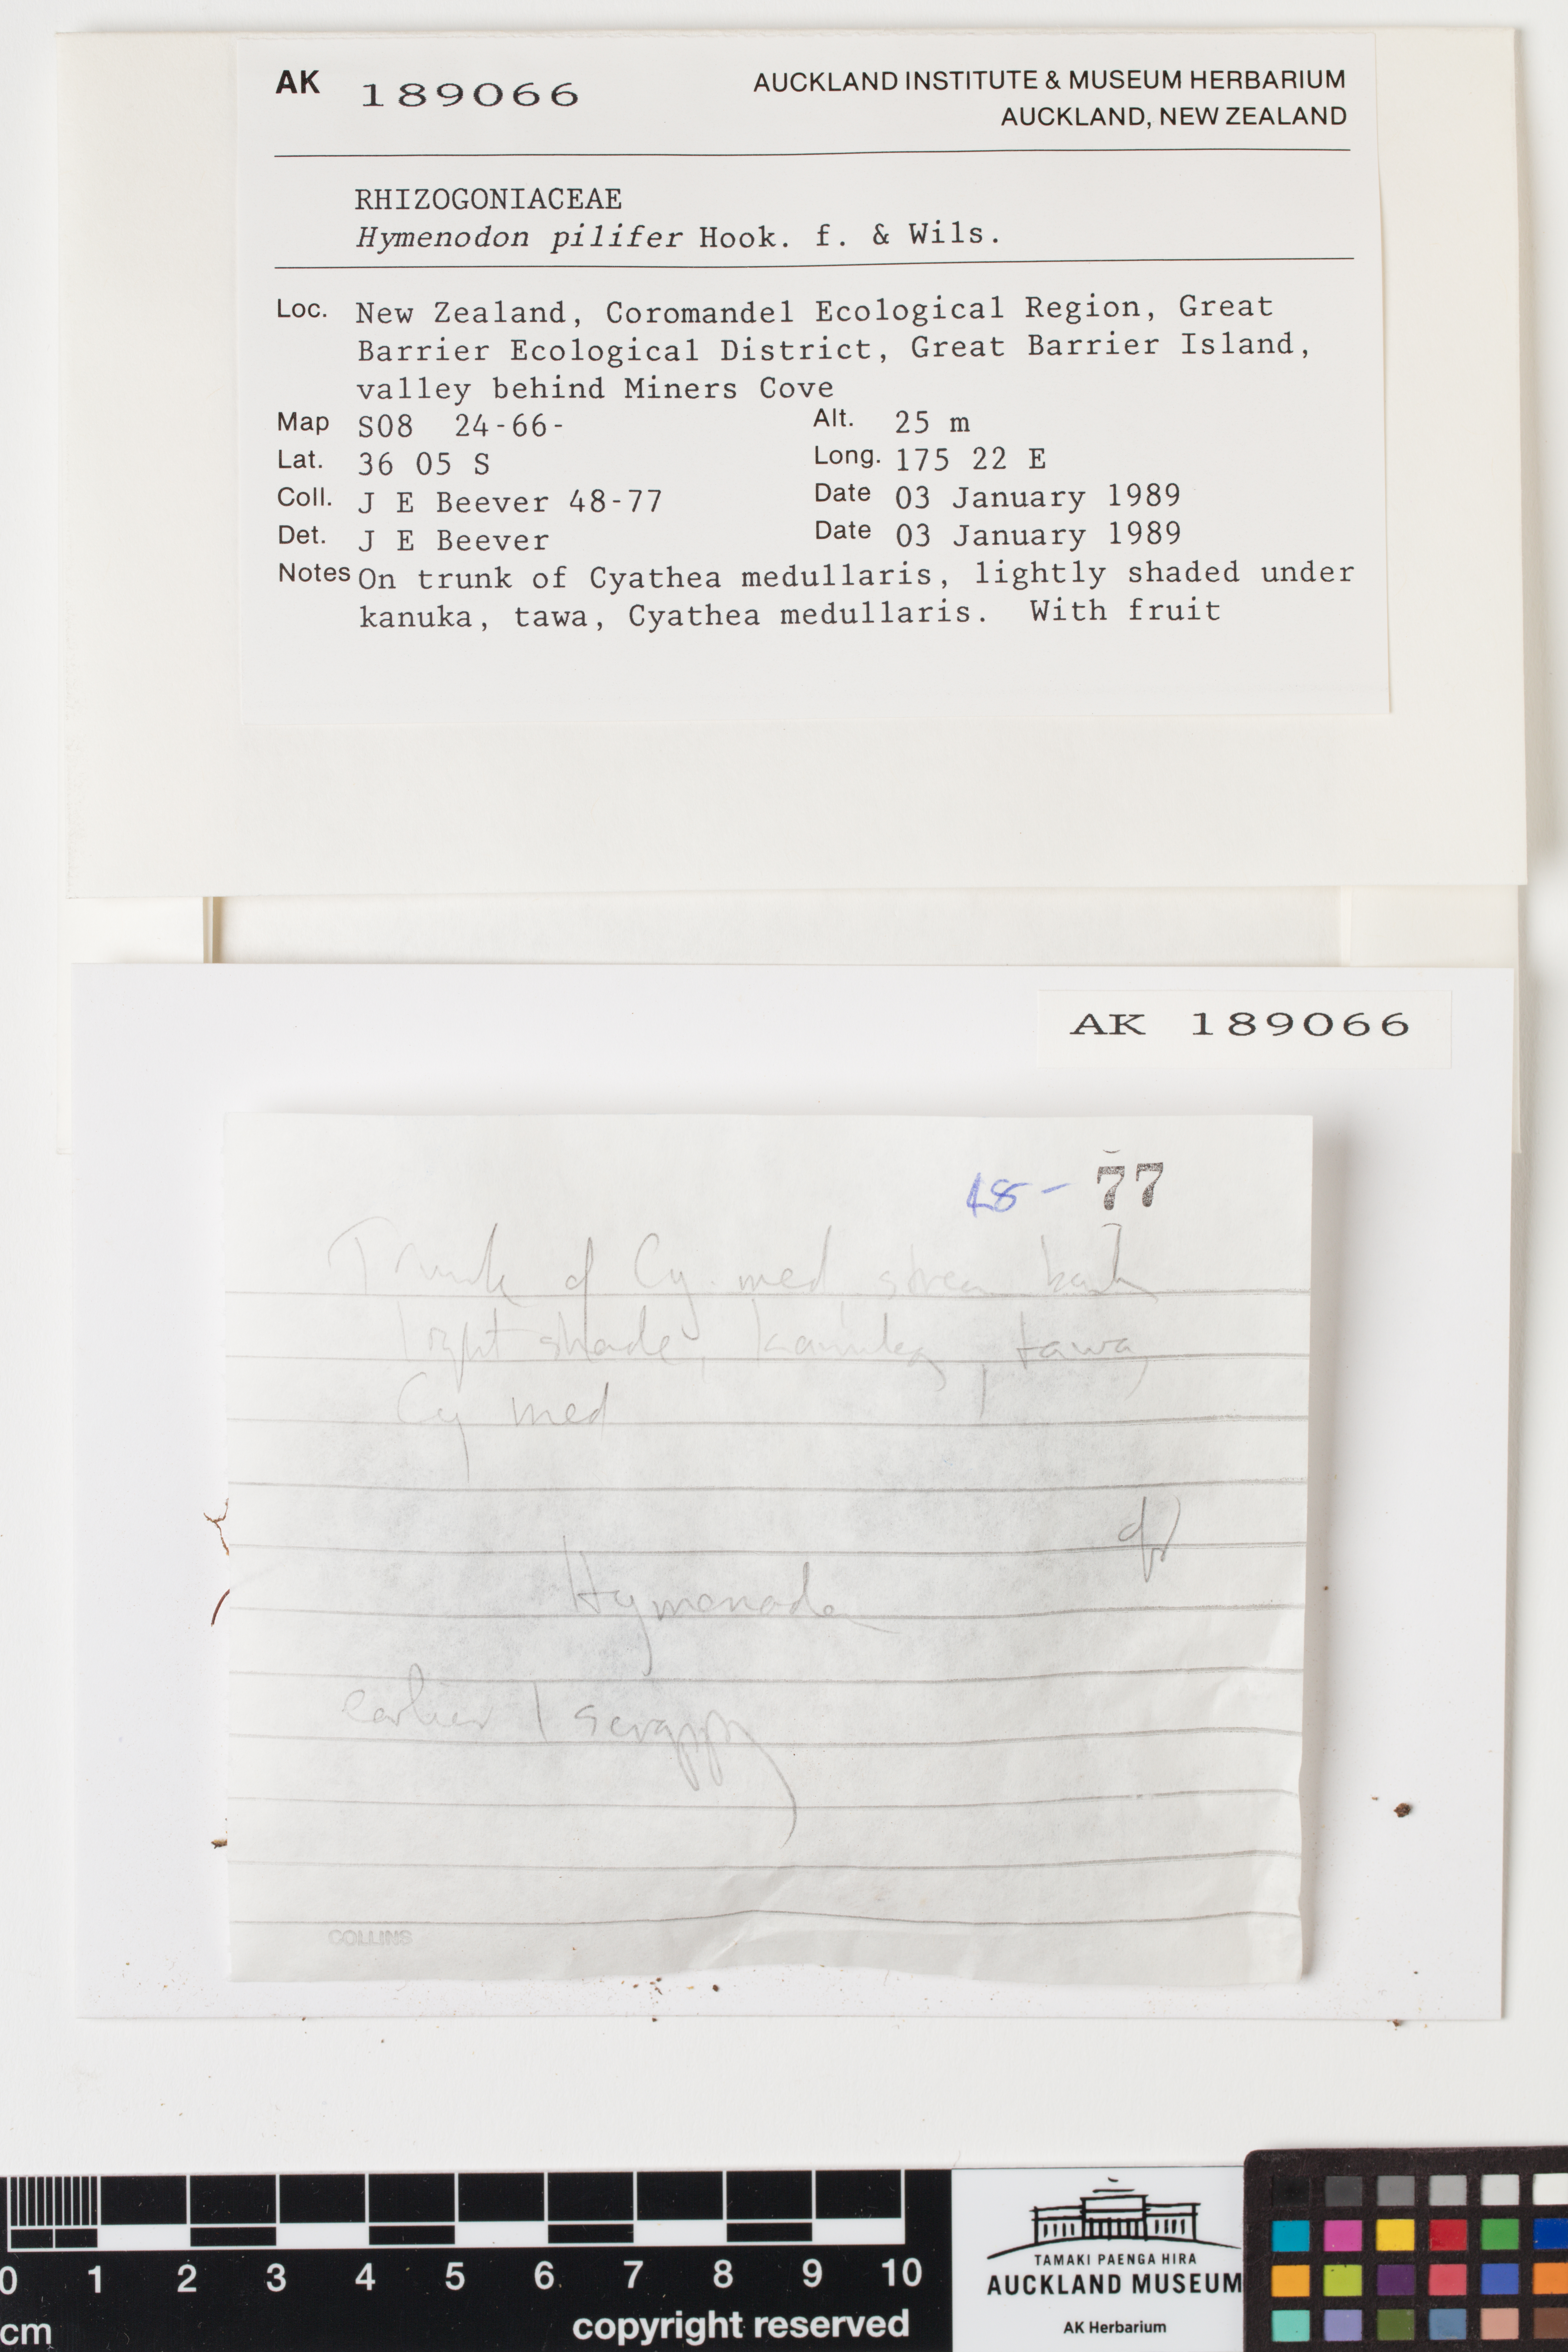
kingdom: Plantae
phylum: Bryophyta
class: Bryopsida
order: Orthodontiales
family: Orthodontiaceae
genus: Hymenodon
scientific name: Hymenodon pilifer
